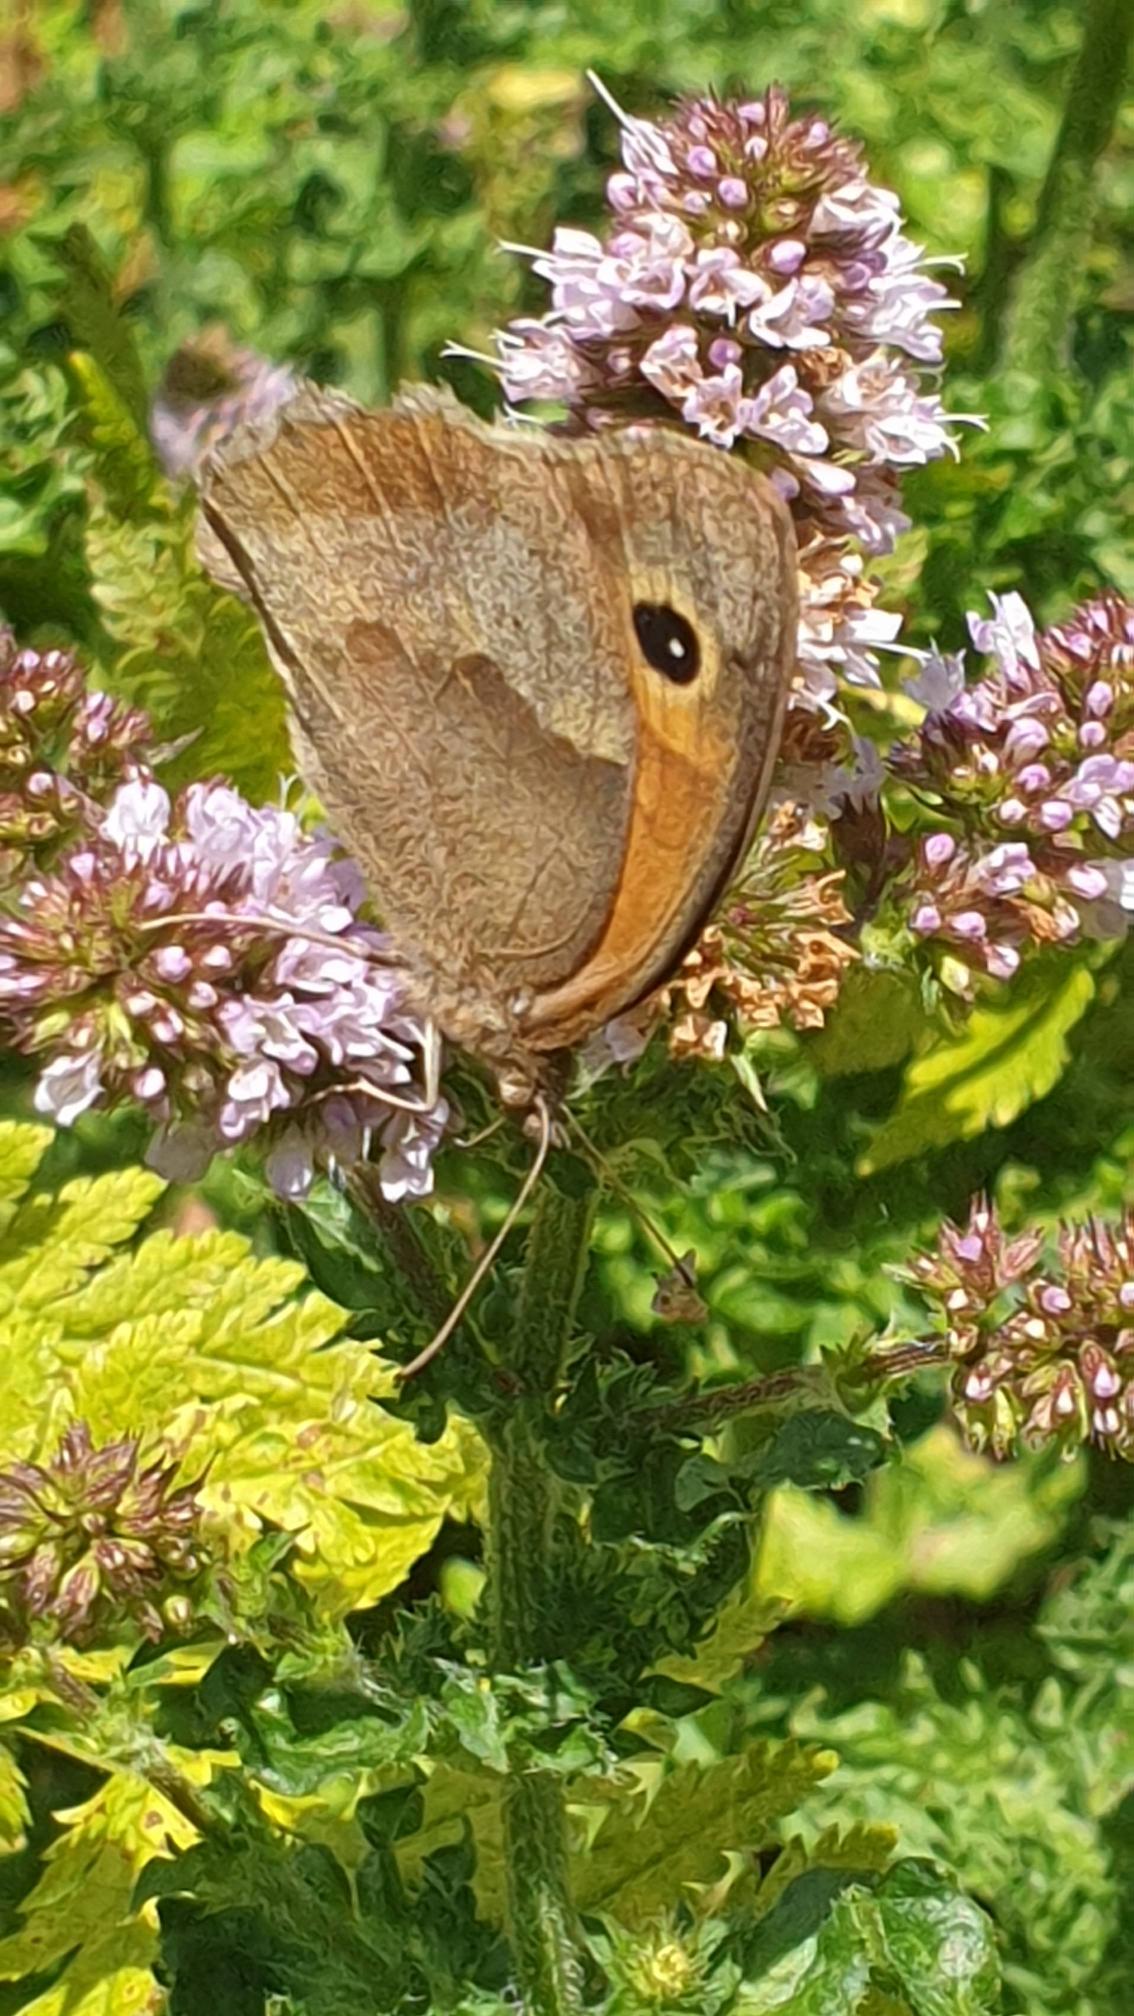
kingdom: Animalia
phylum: Arthropoda
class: Insecta
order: Lepidoptera
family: Nymphalidae
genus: Maniola
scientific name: Maniola jurtina
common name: Græsrandøje
